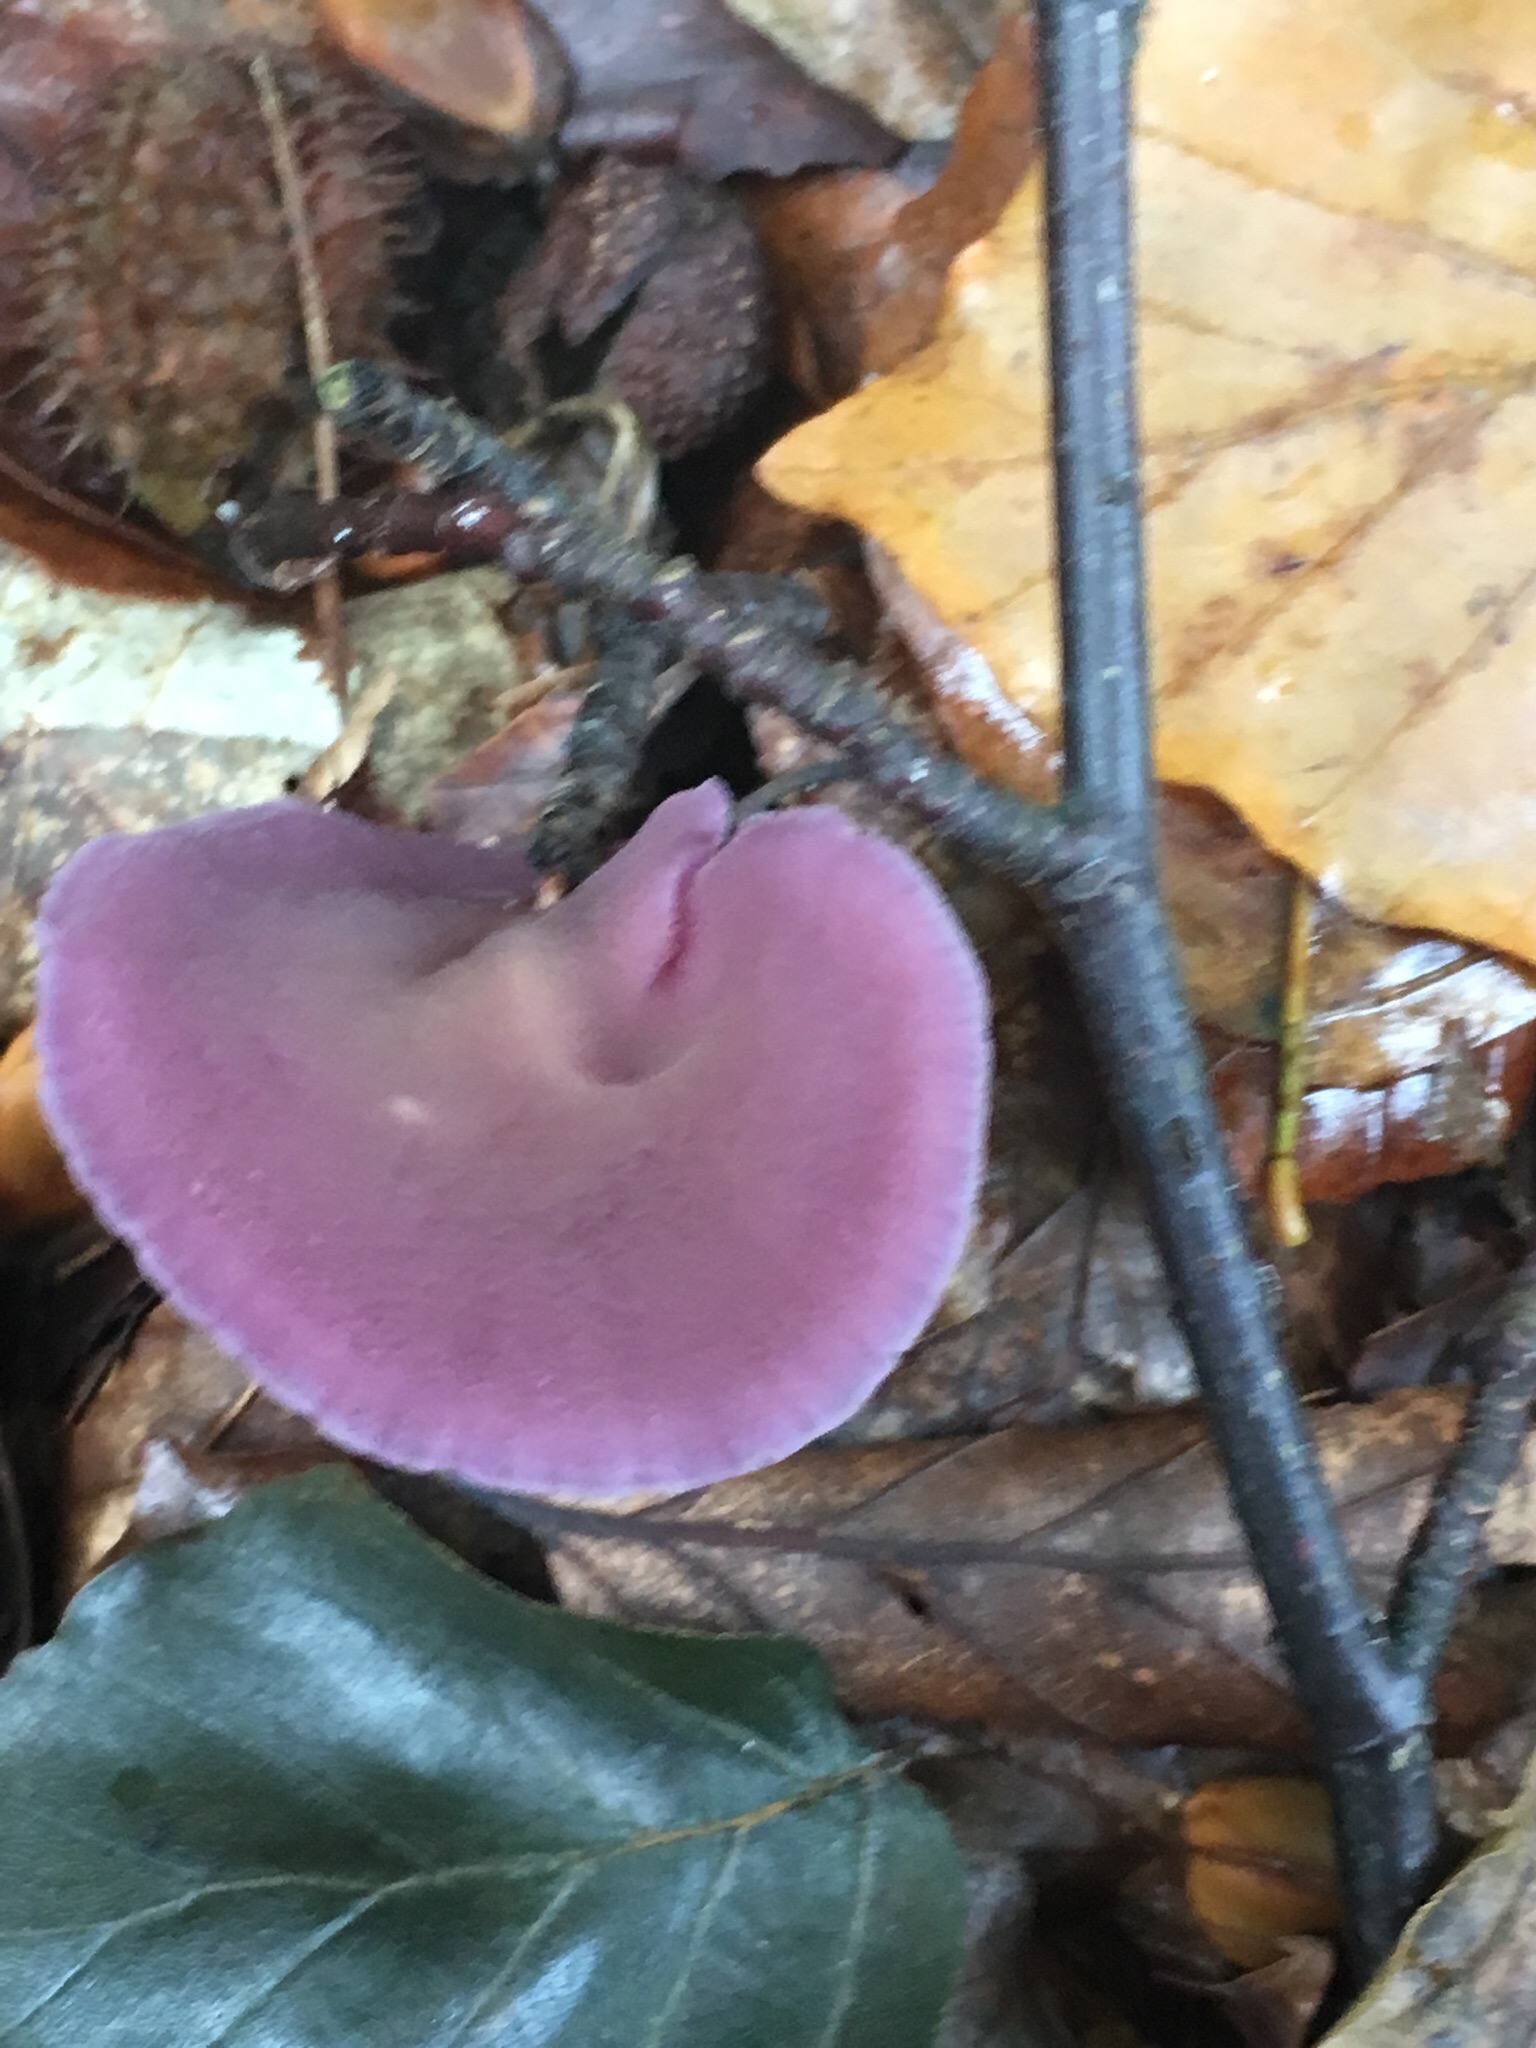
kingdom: Fungi
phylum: Basidiomycota
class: Agaricomycetes
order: Agaricales
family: Hydnangiaceae
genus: Laccaria
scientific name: Laccaria amethystina
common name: violet ametysthat
